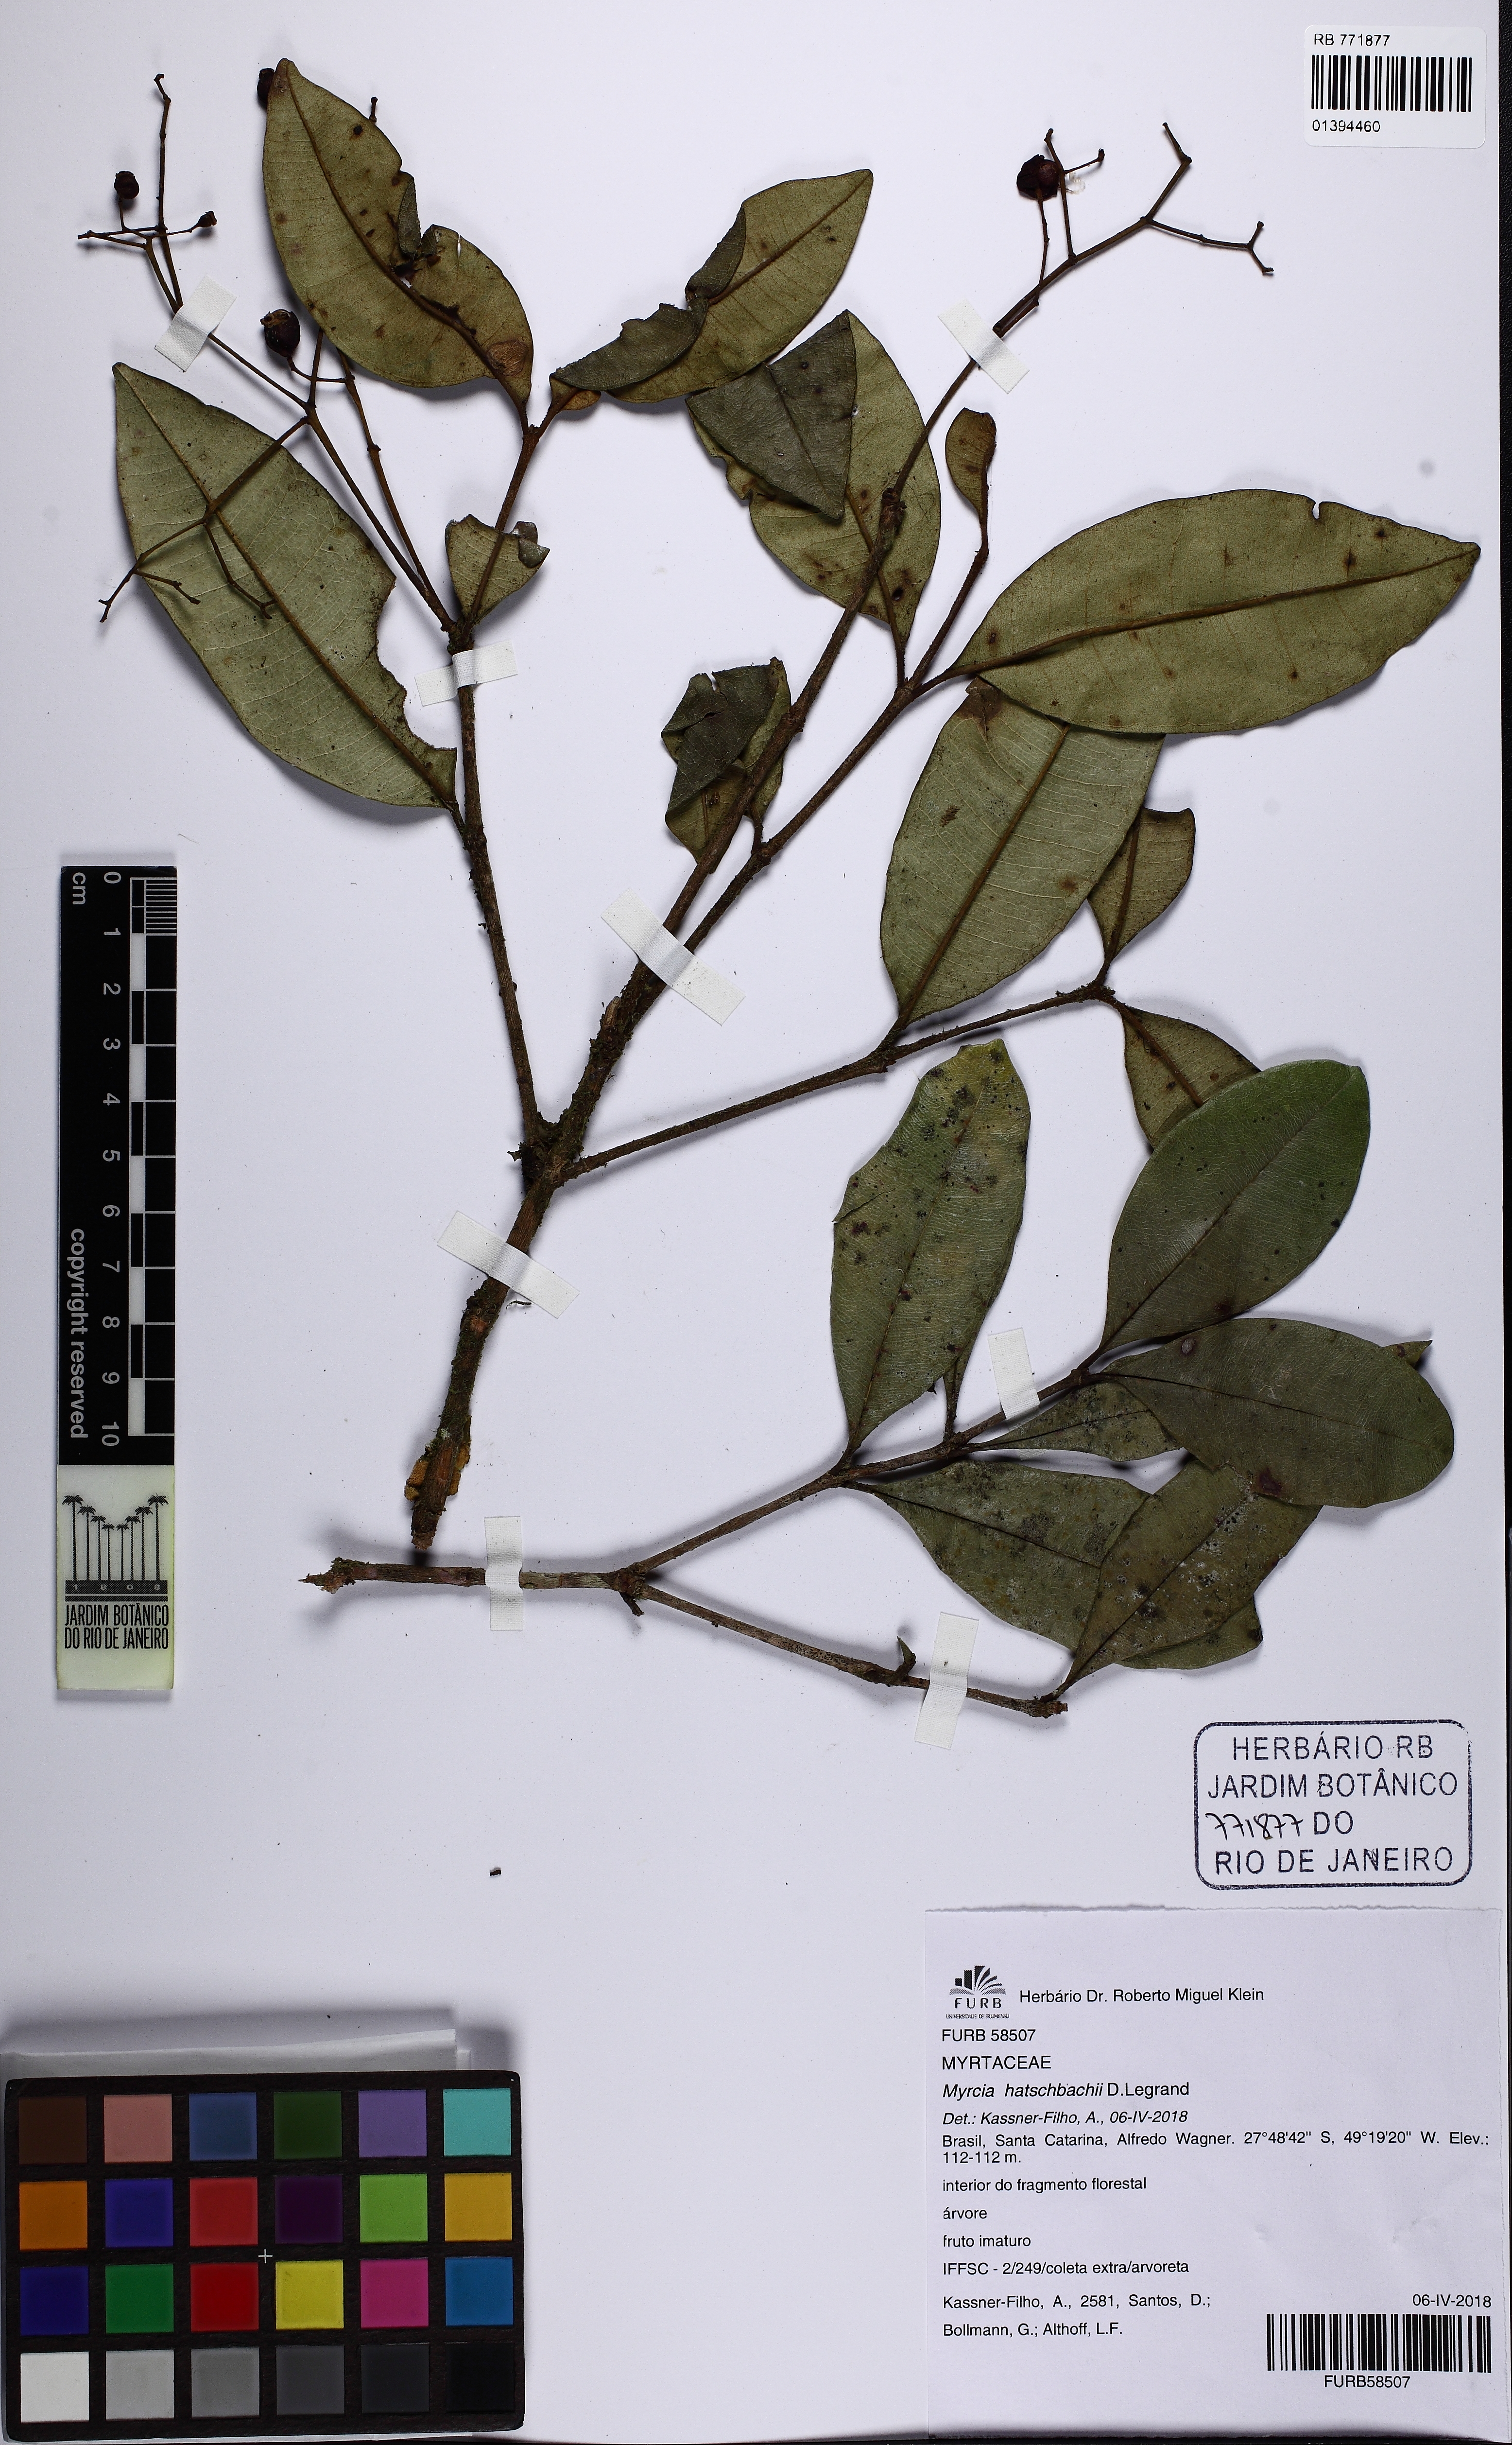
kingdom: Plantae
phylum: Tracheophyta
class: Magnoliopsida
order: Myrtales
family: Myrtaceae
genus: Myrcia
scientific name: Myrcia hatschbachii
